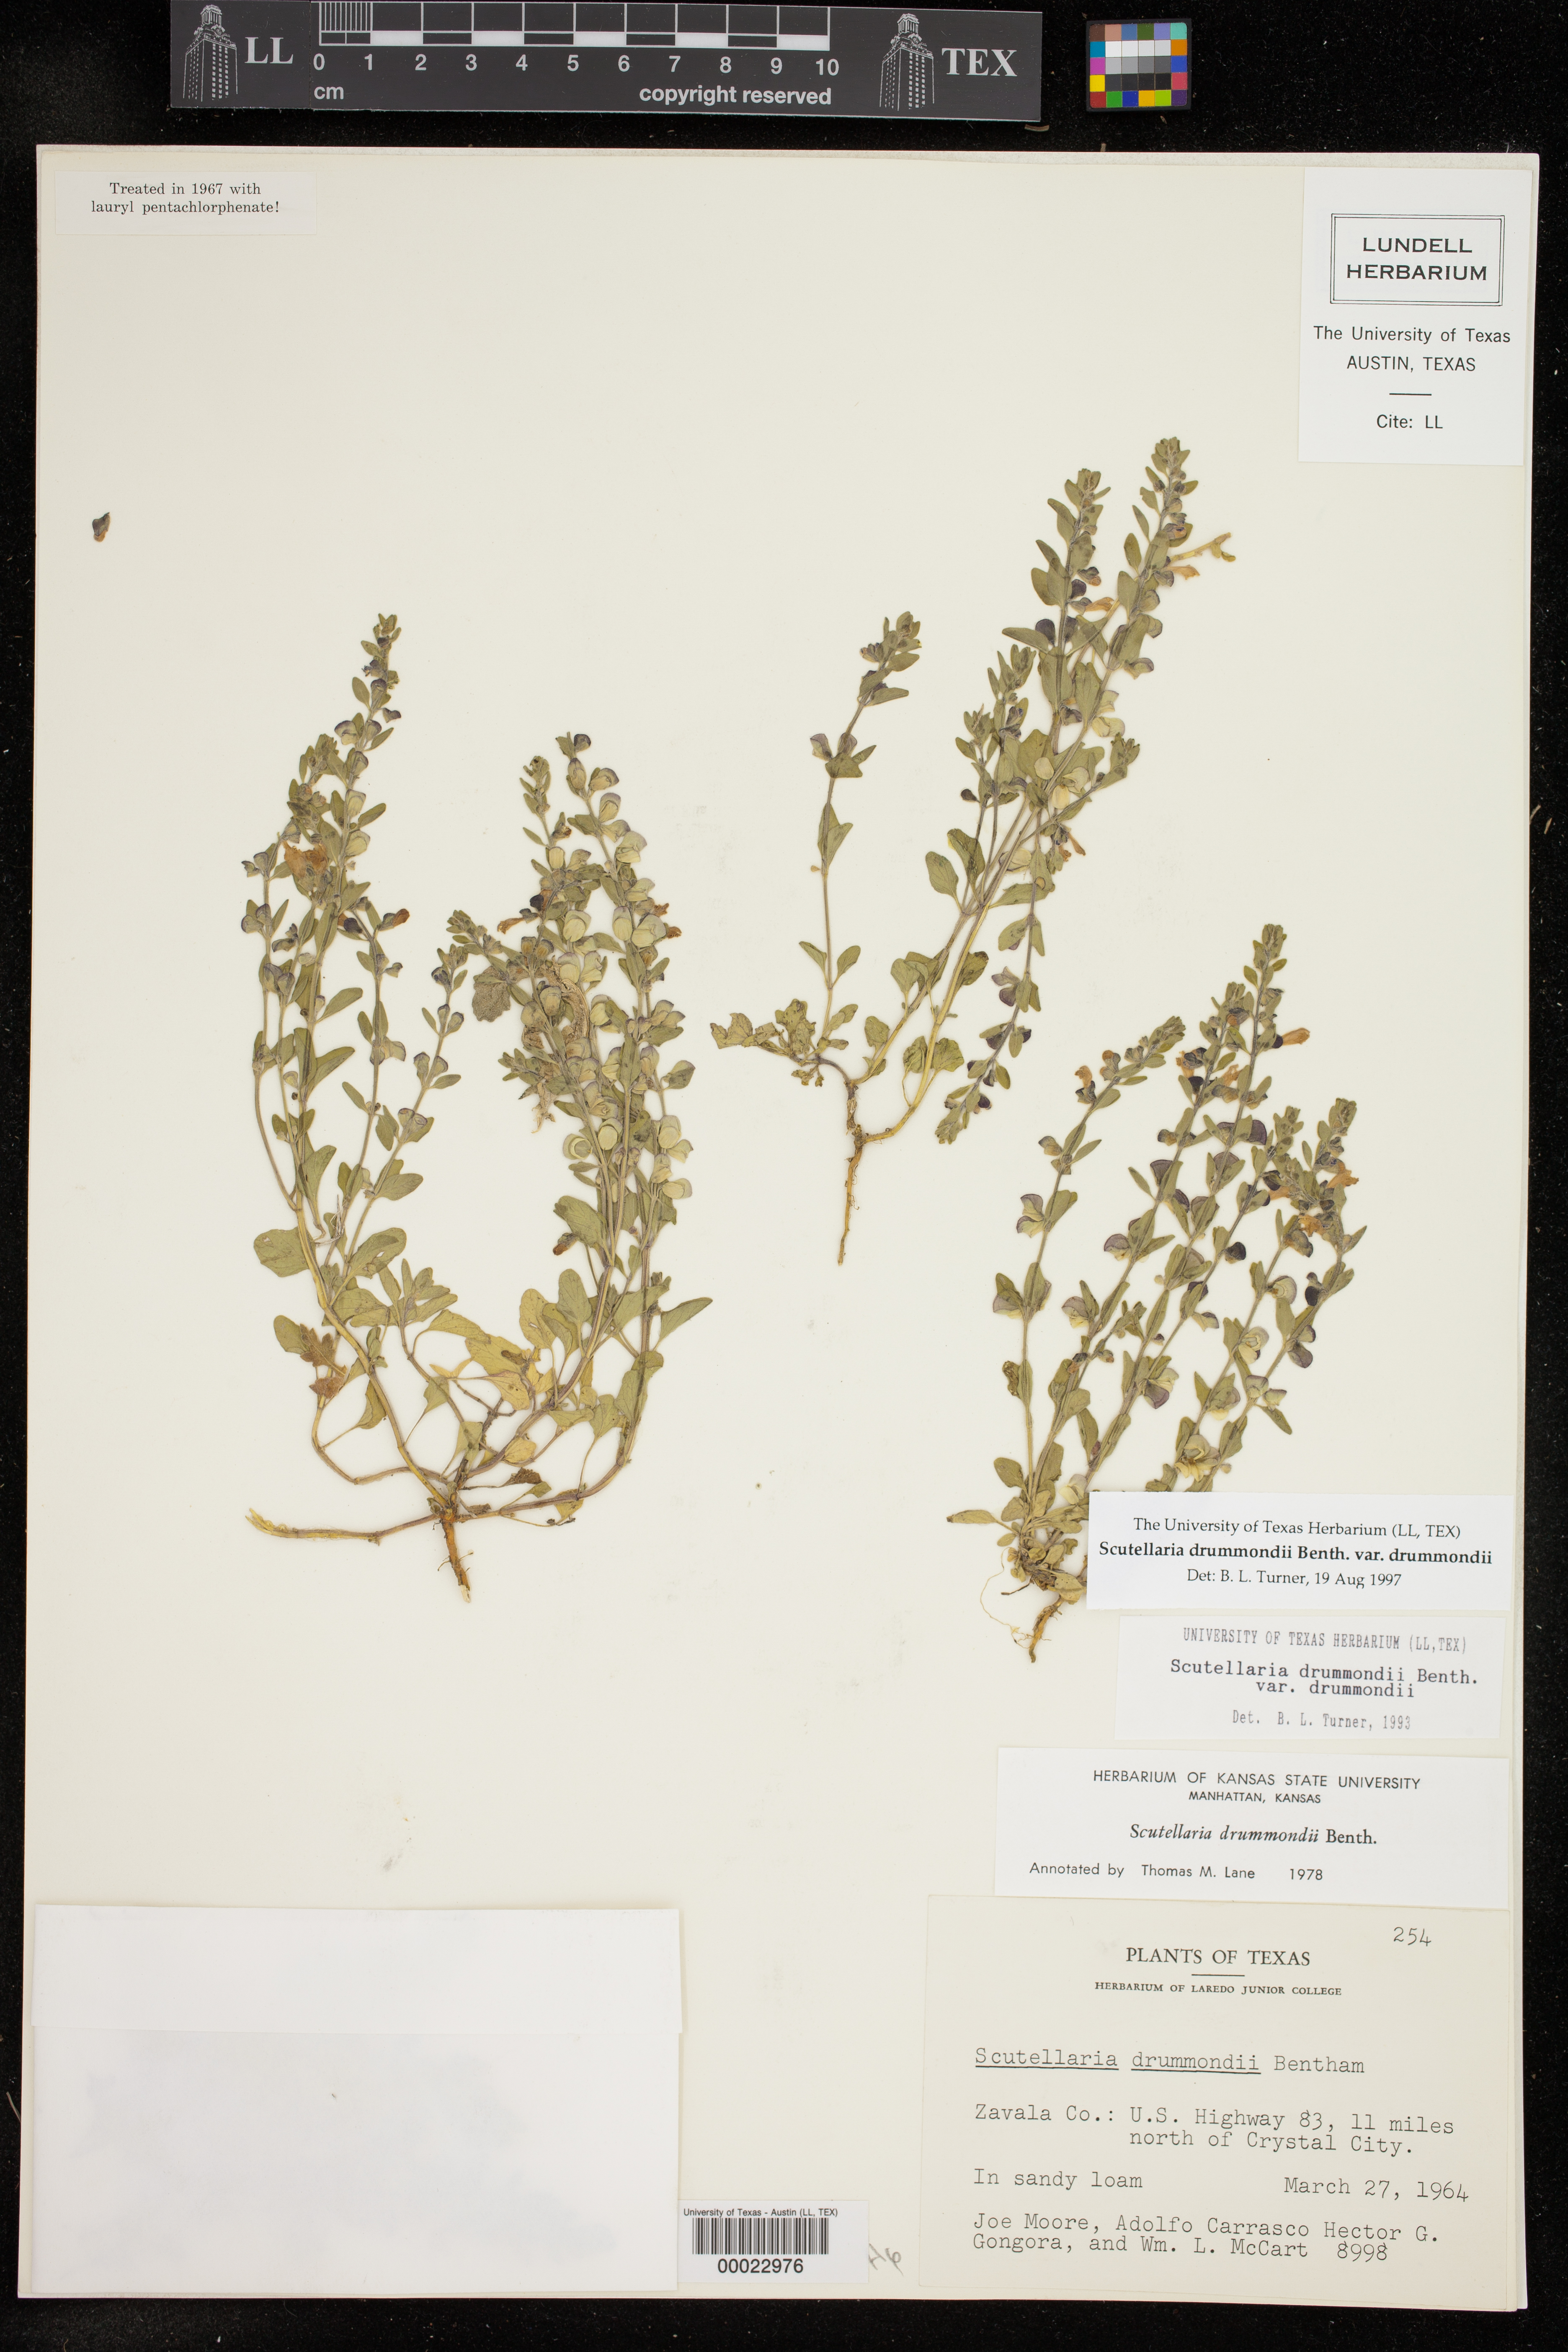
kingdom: Plantae
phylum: Tracheophyta
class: Magnoliopsida
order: Lamiales
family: Lamiaceae
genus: Scutellaria
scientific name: Scutellaria drummondii
